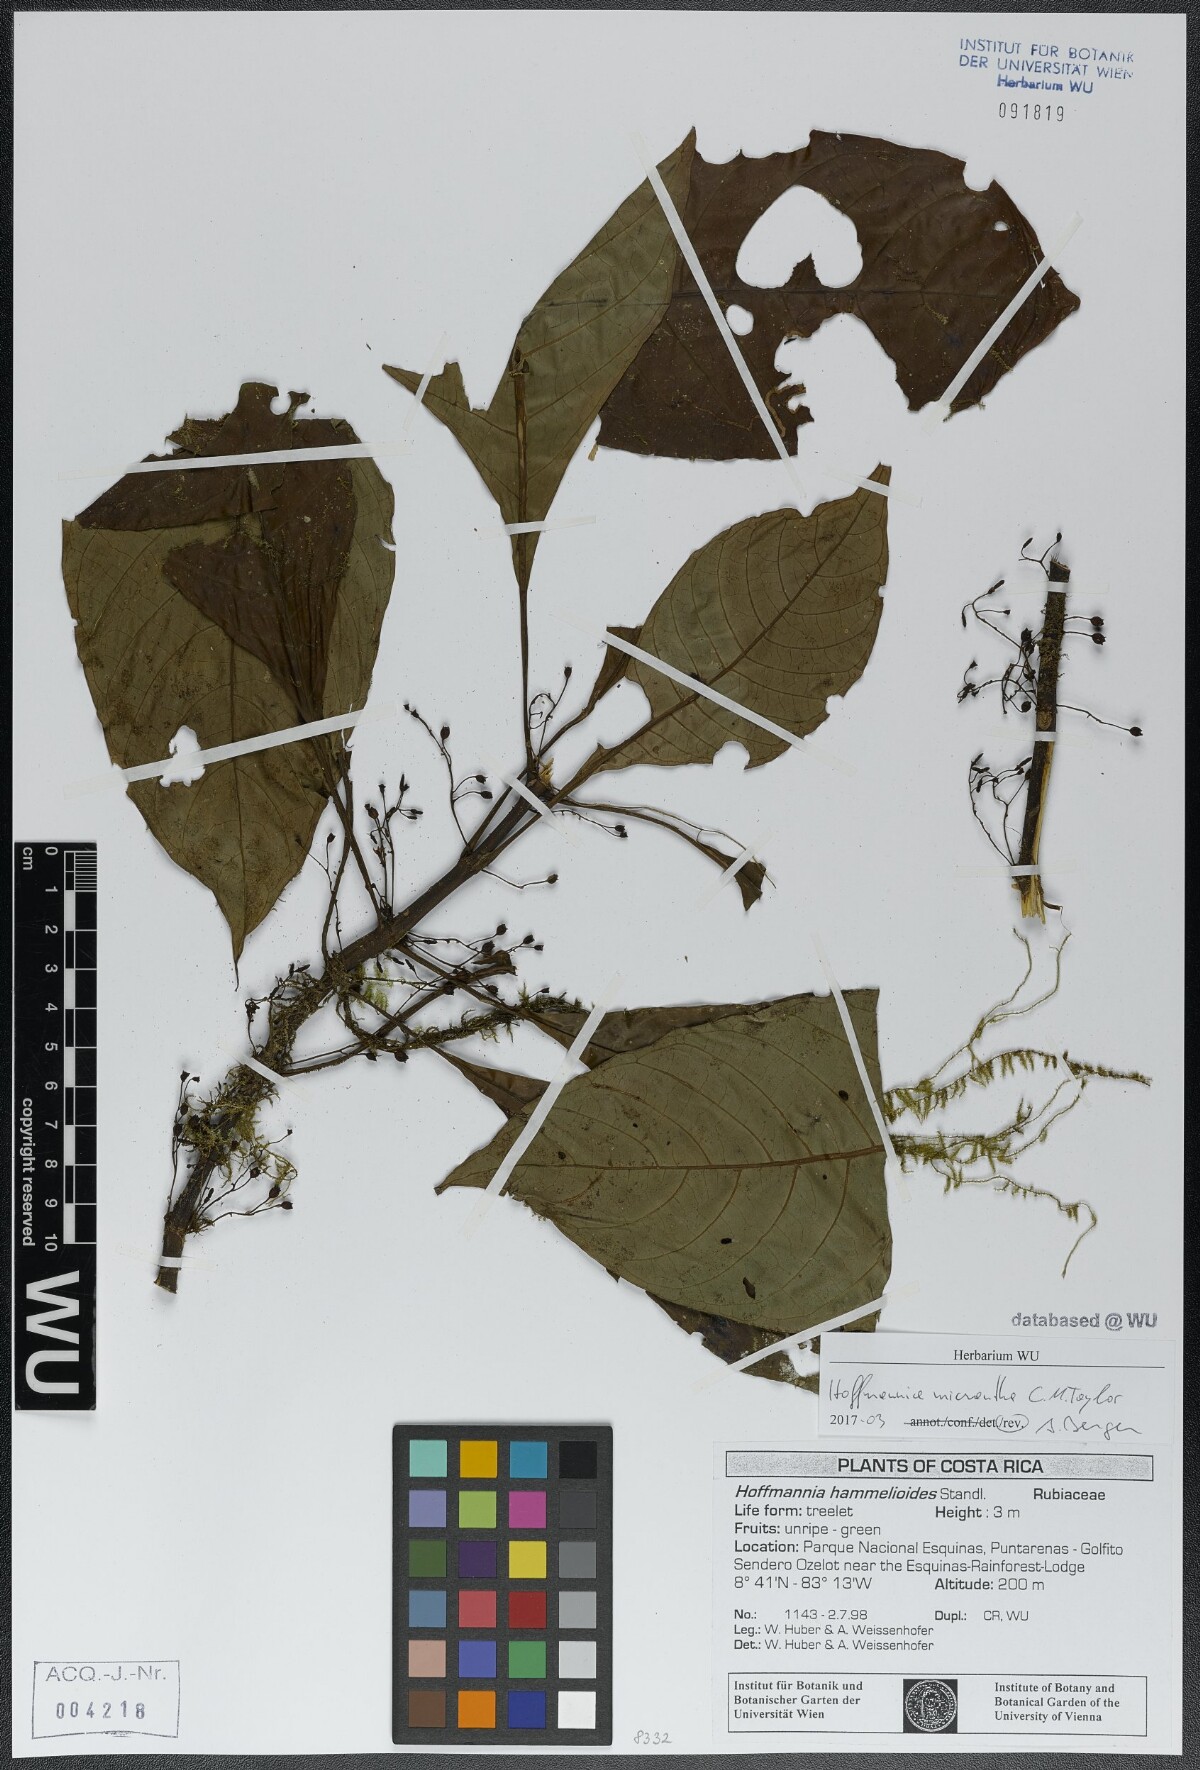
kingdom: Plantae
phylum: Tracheophyta
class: Magnoliopsida
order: Gentianales
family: Rubiaceae
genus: Hoffmannia
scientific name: Hoffmannia micrantha
